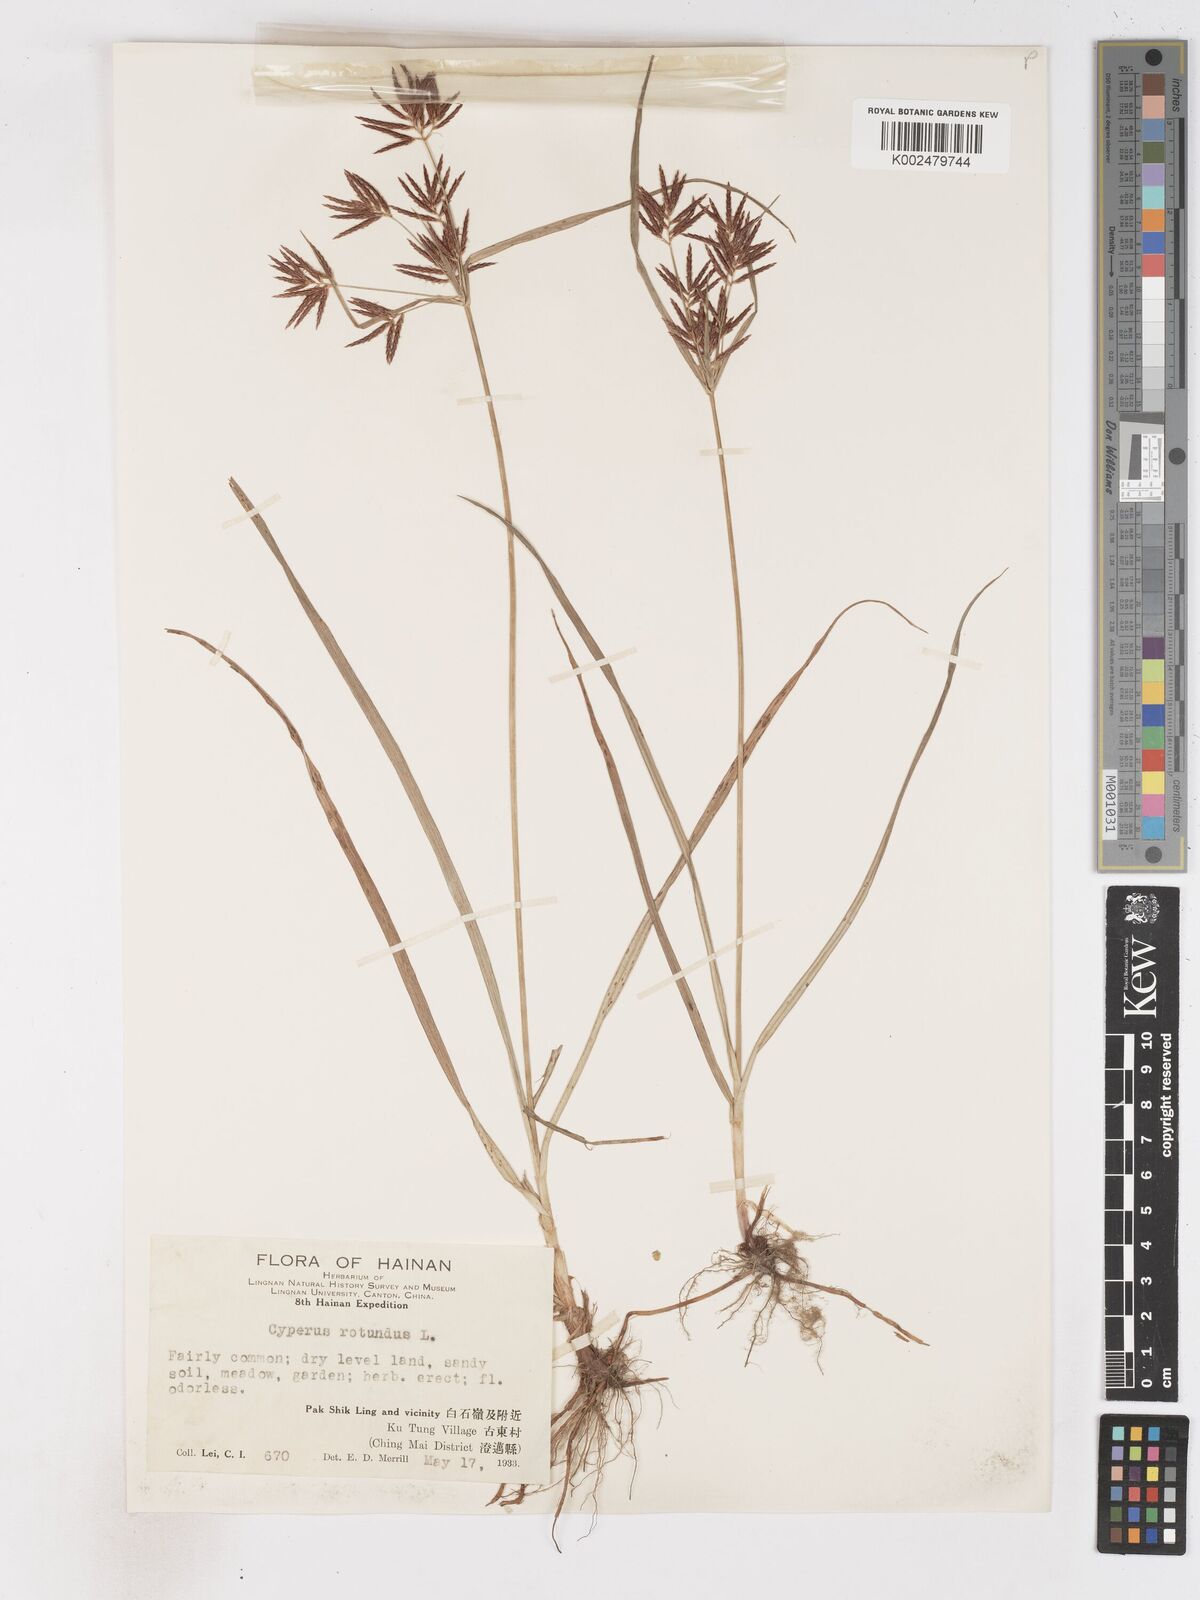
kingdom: Plantae
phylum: Tracheophyta
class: Liliopsida
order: Poales
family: Cyperaceae
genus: Cyperus
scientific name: Cyperus rotundus
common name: Nutgrass
